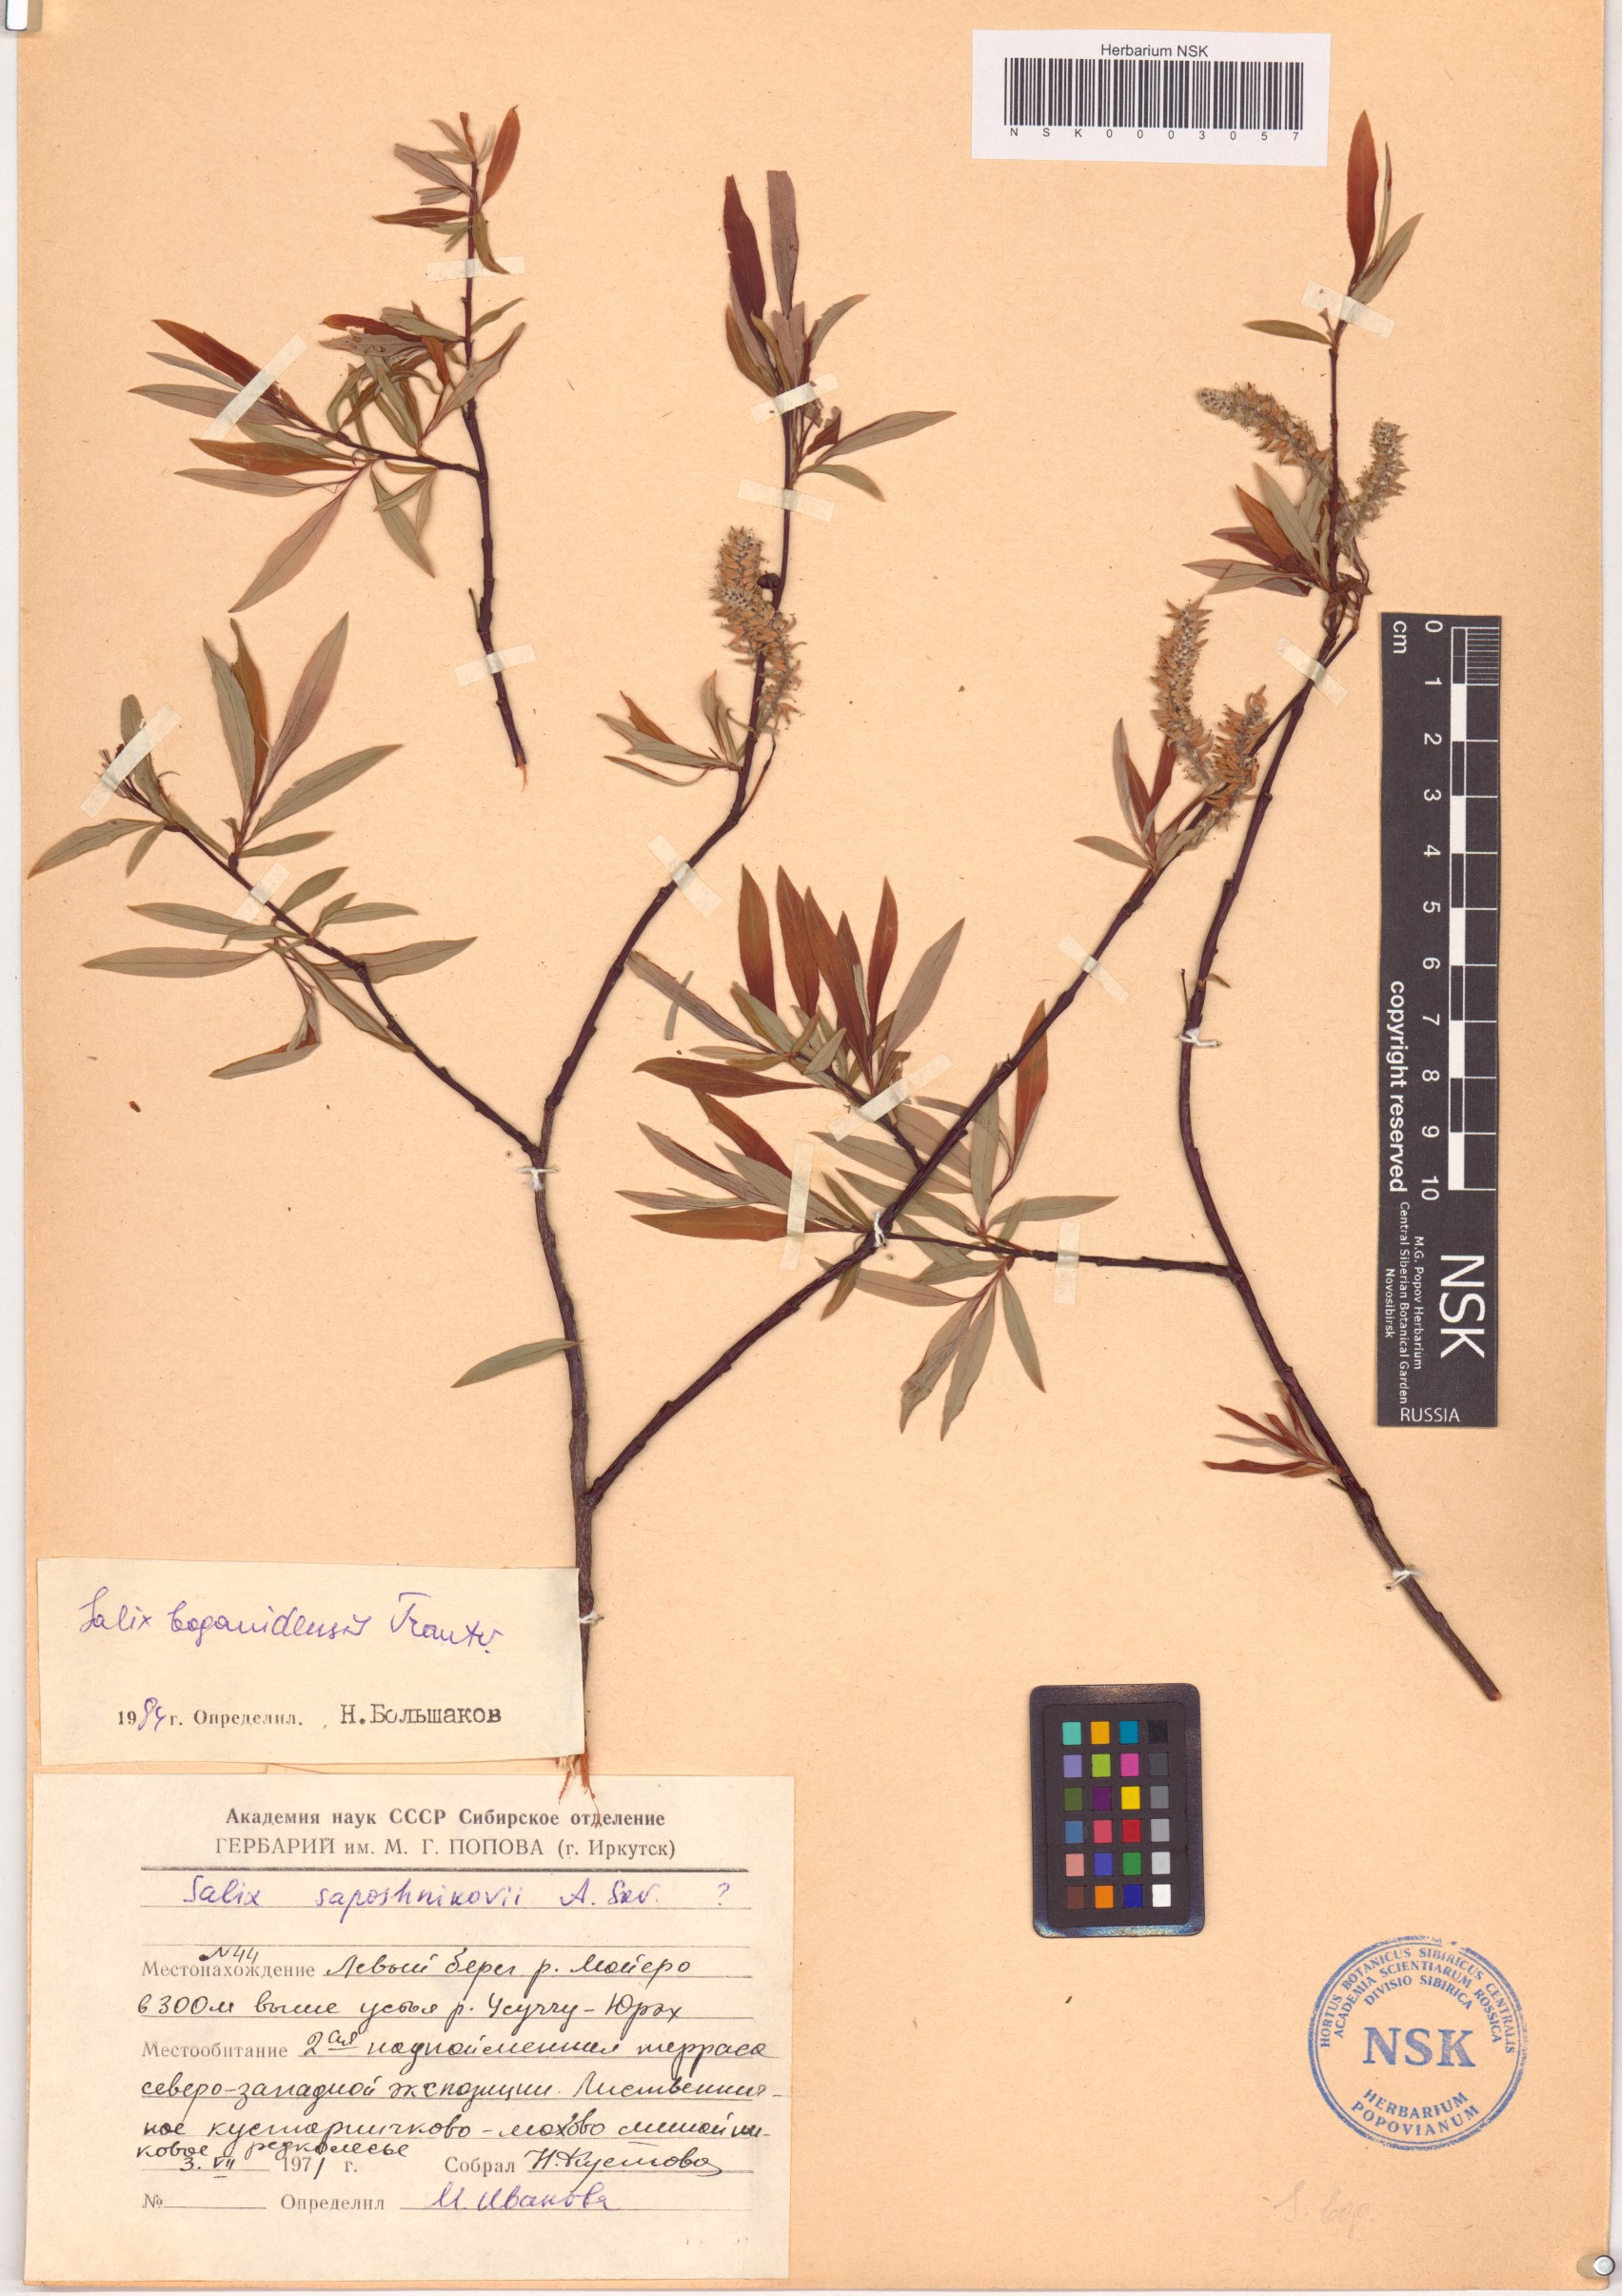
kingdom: Plantae
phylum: Tracheophyta
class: Magnoliopsida
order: Malpighiales
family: Salicaceae
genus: Salix
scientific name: Salix boganidensis
